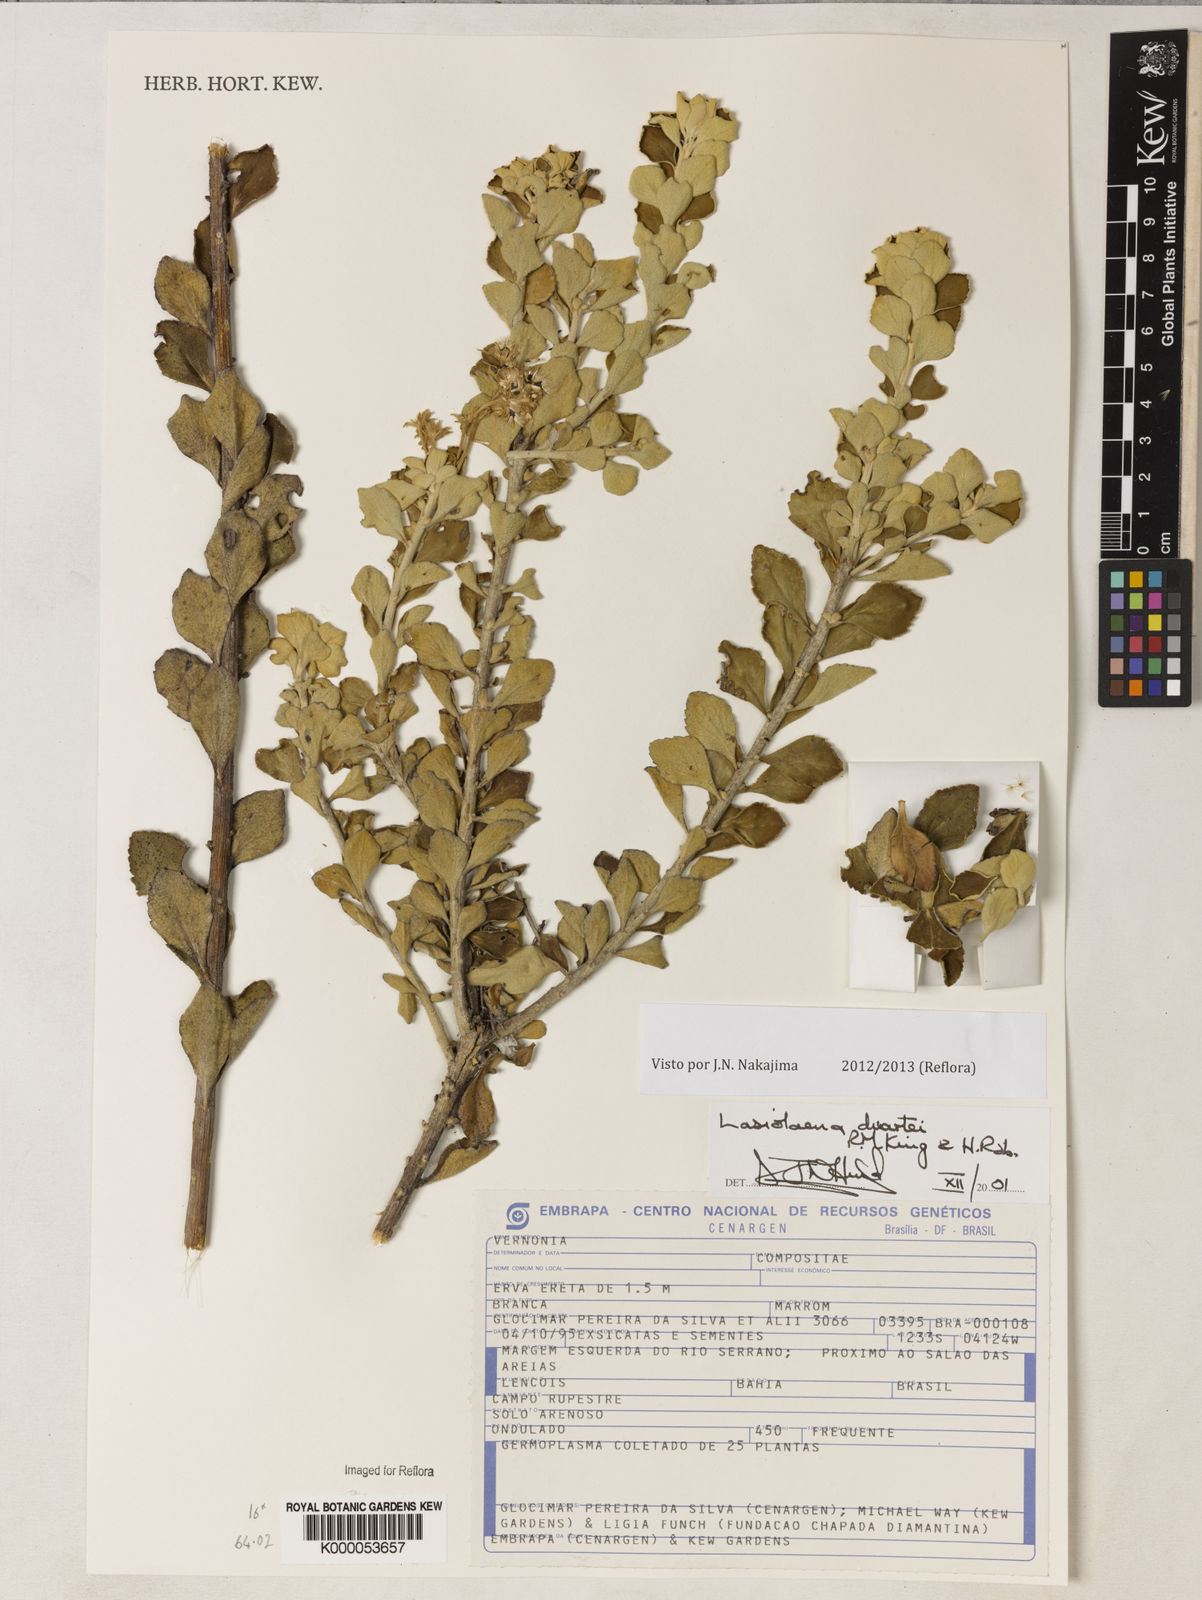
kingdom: Plantae
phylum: Tracheophyta
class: Magnoliopsida
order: Asterales
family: Asteraceae
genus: Lasiolaena
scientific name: Lasiolaena duartei
